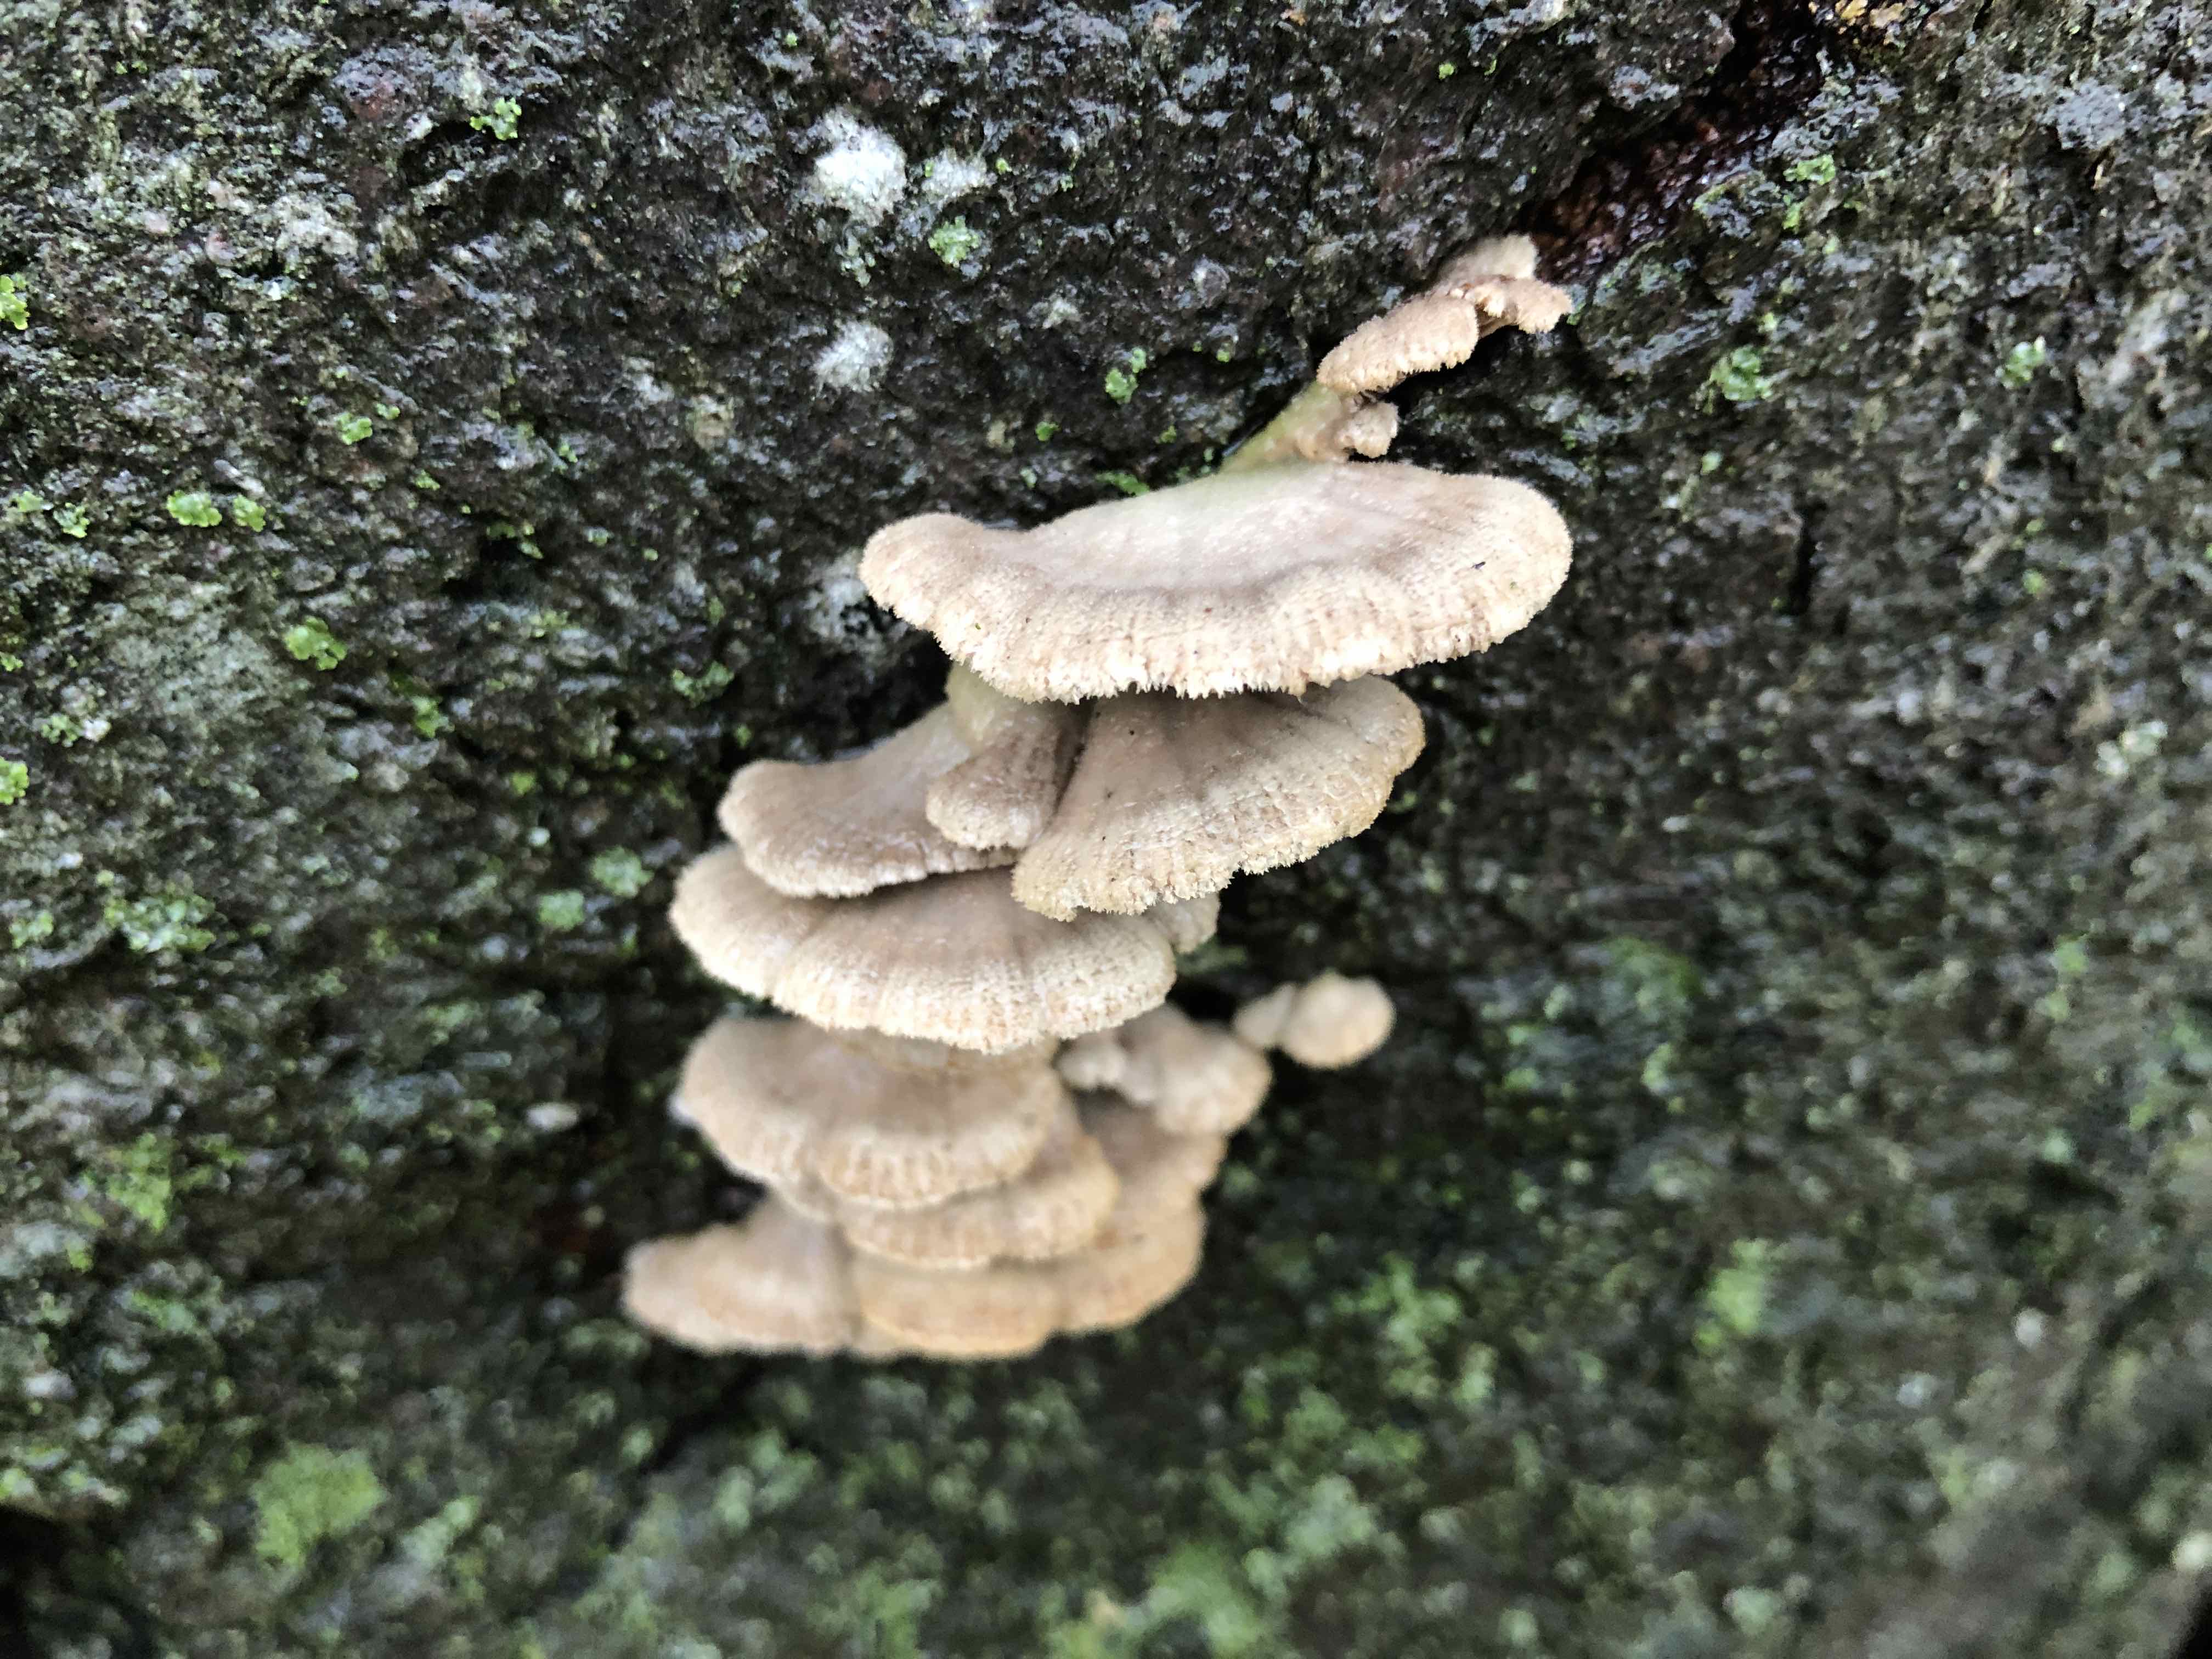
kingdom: Fungi
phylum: Basidiomycota
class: Agaricomycetes
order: Agaricales
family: Schizophyllaceae
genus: Schizophyllum
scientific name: Schizophyllum commune
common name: kløvblad
